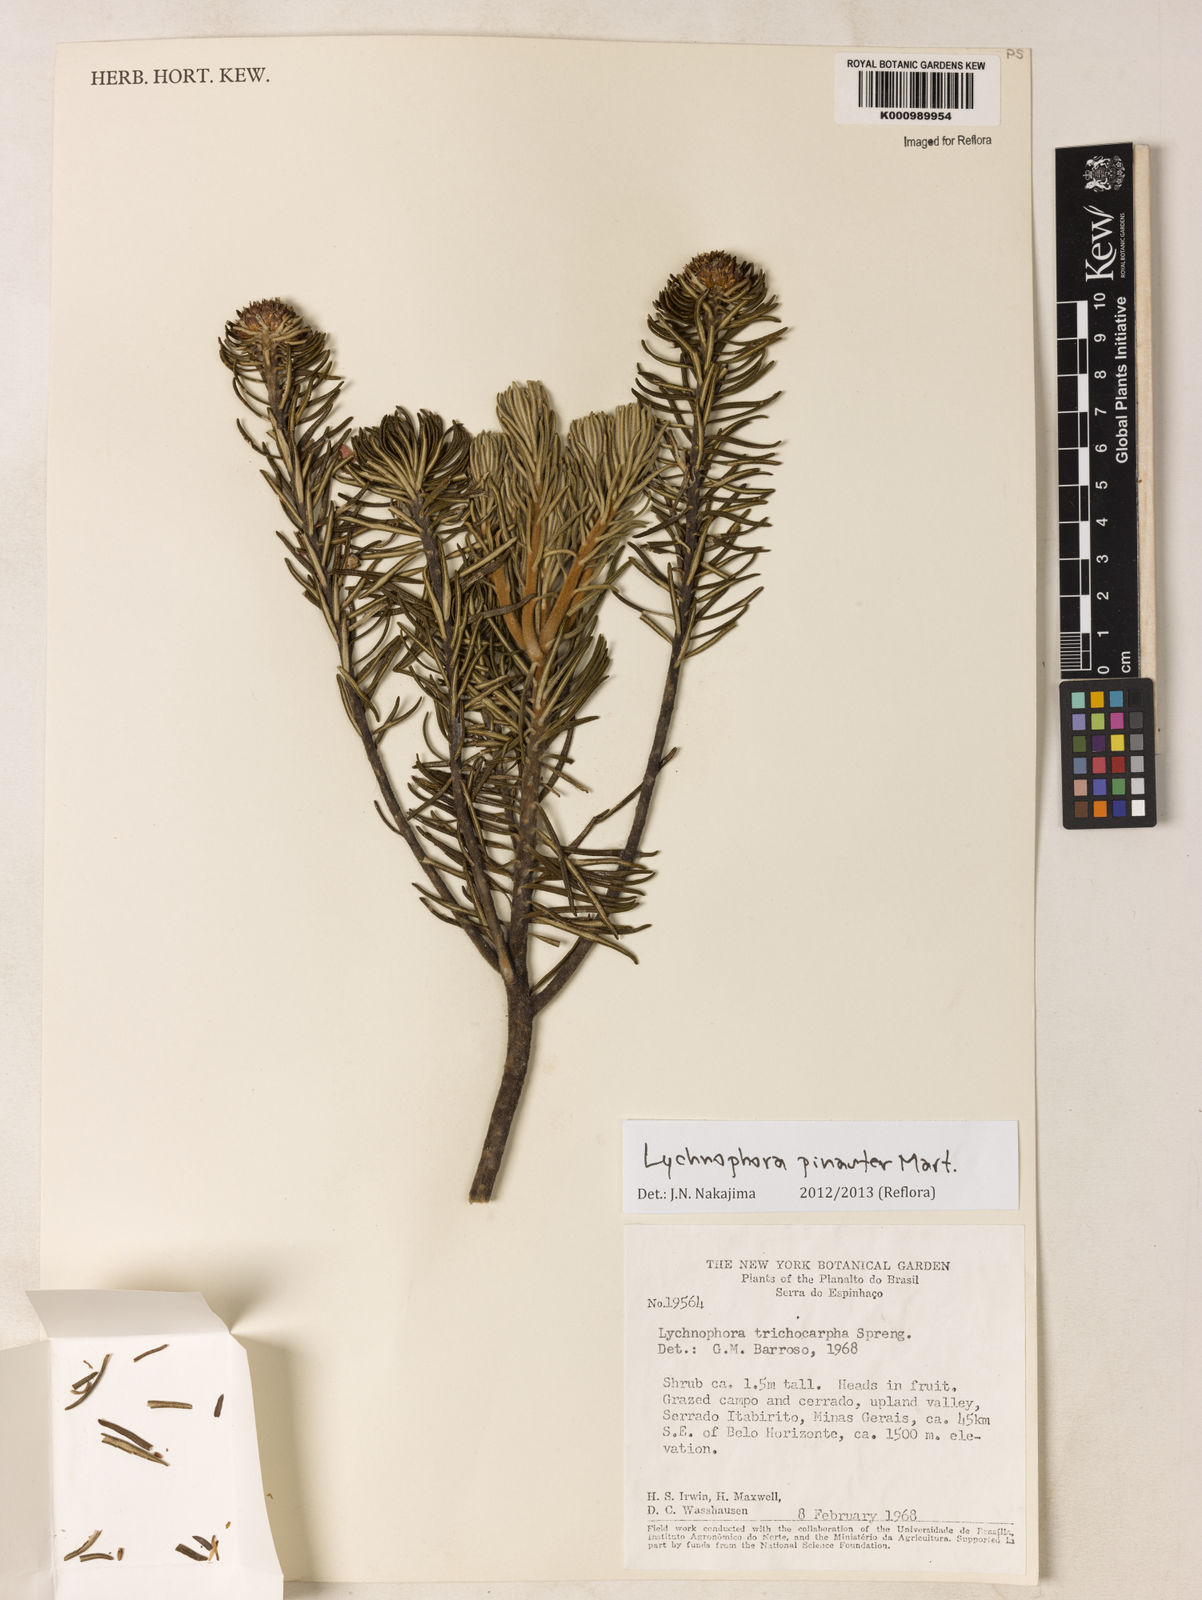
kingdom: Plantae
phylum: Tracheophyta
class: Magnoliopsida
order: Asterales
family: Asteraceae
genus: Lychnophora
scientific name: Lychnophora pinaster
